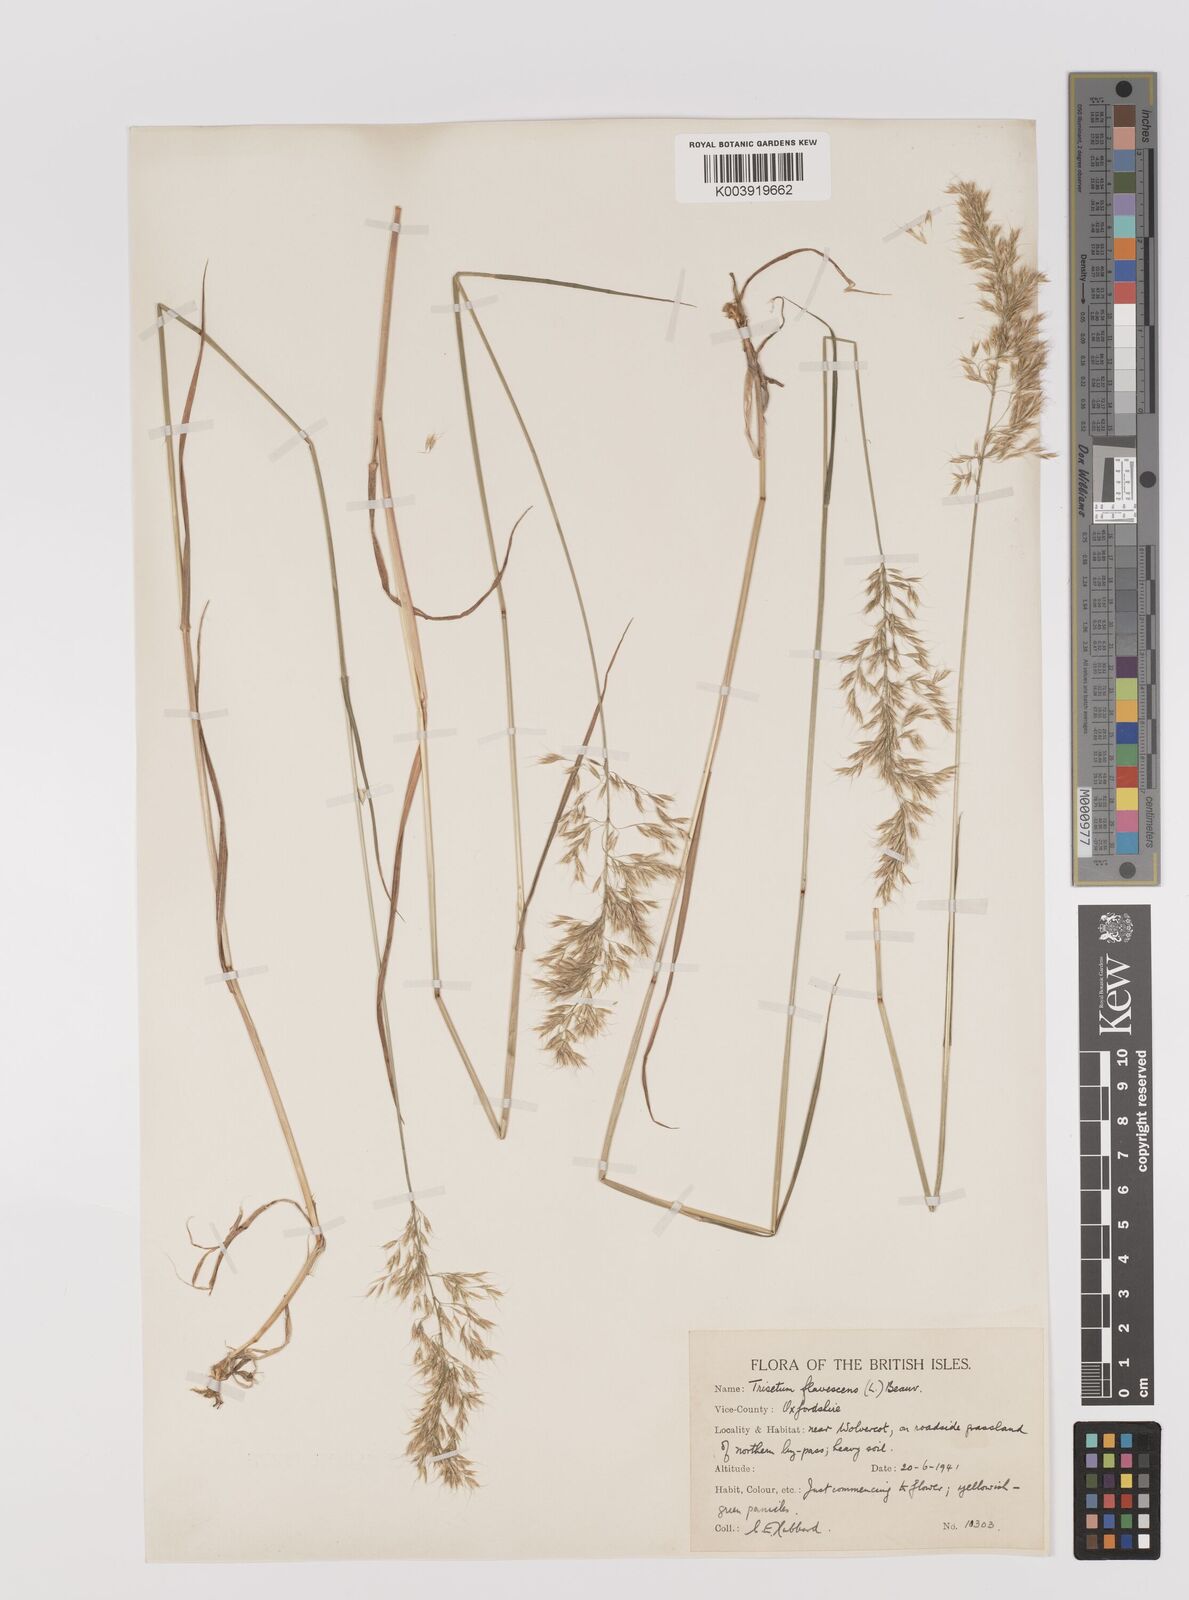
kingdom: Plantae
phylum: Tracheophyta
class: Liliopsida
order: Poales
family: Poaceae
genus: Trisetum
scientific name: Trisetum flavescens
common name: Yellow oat-grass
